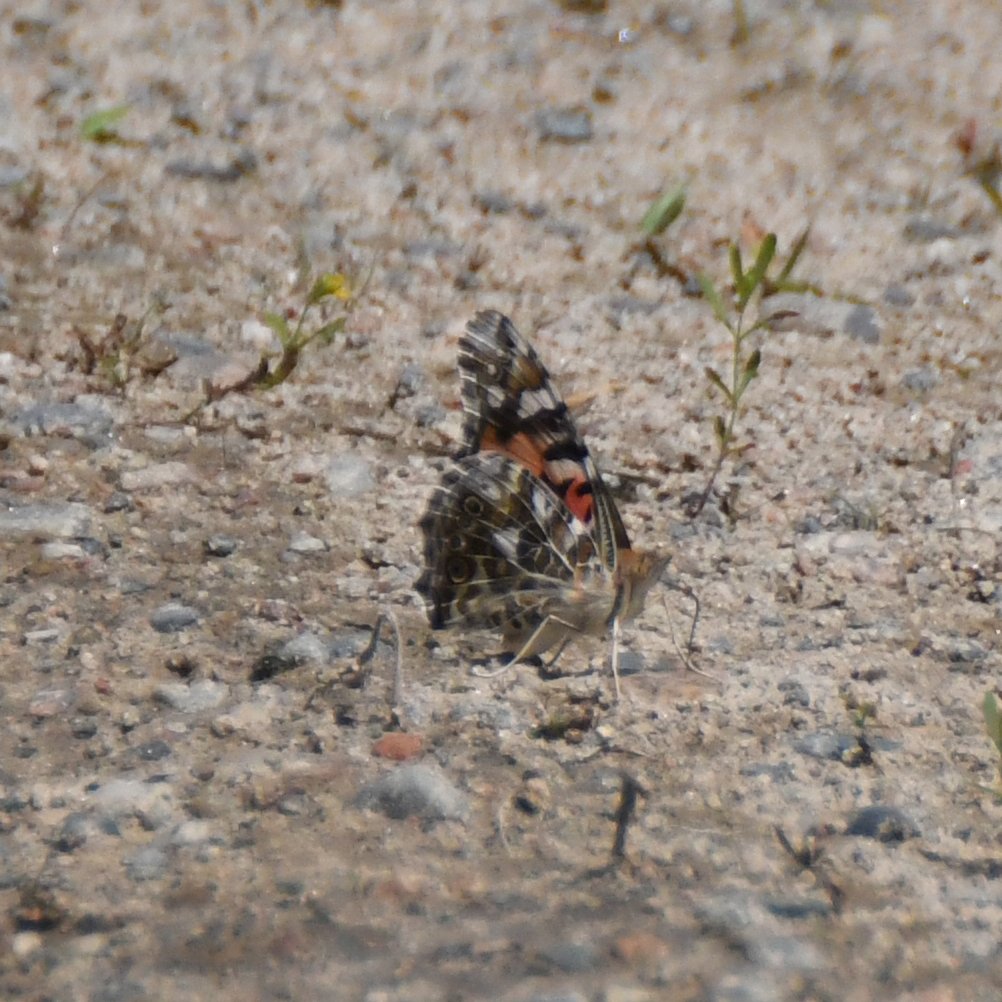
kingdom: Animalia
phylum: Arthropoda
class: Insecta
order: Lepidoptera
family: Nymphalidae
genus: Vanessa
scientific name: Vanessa cardui
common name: Painted Lady
